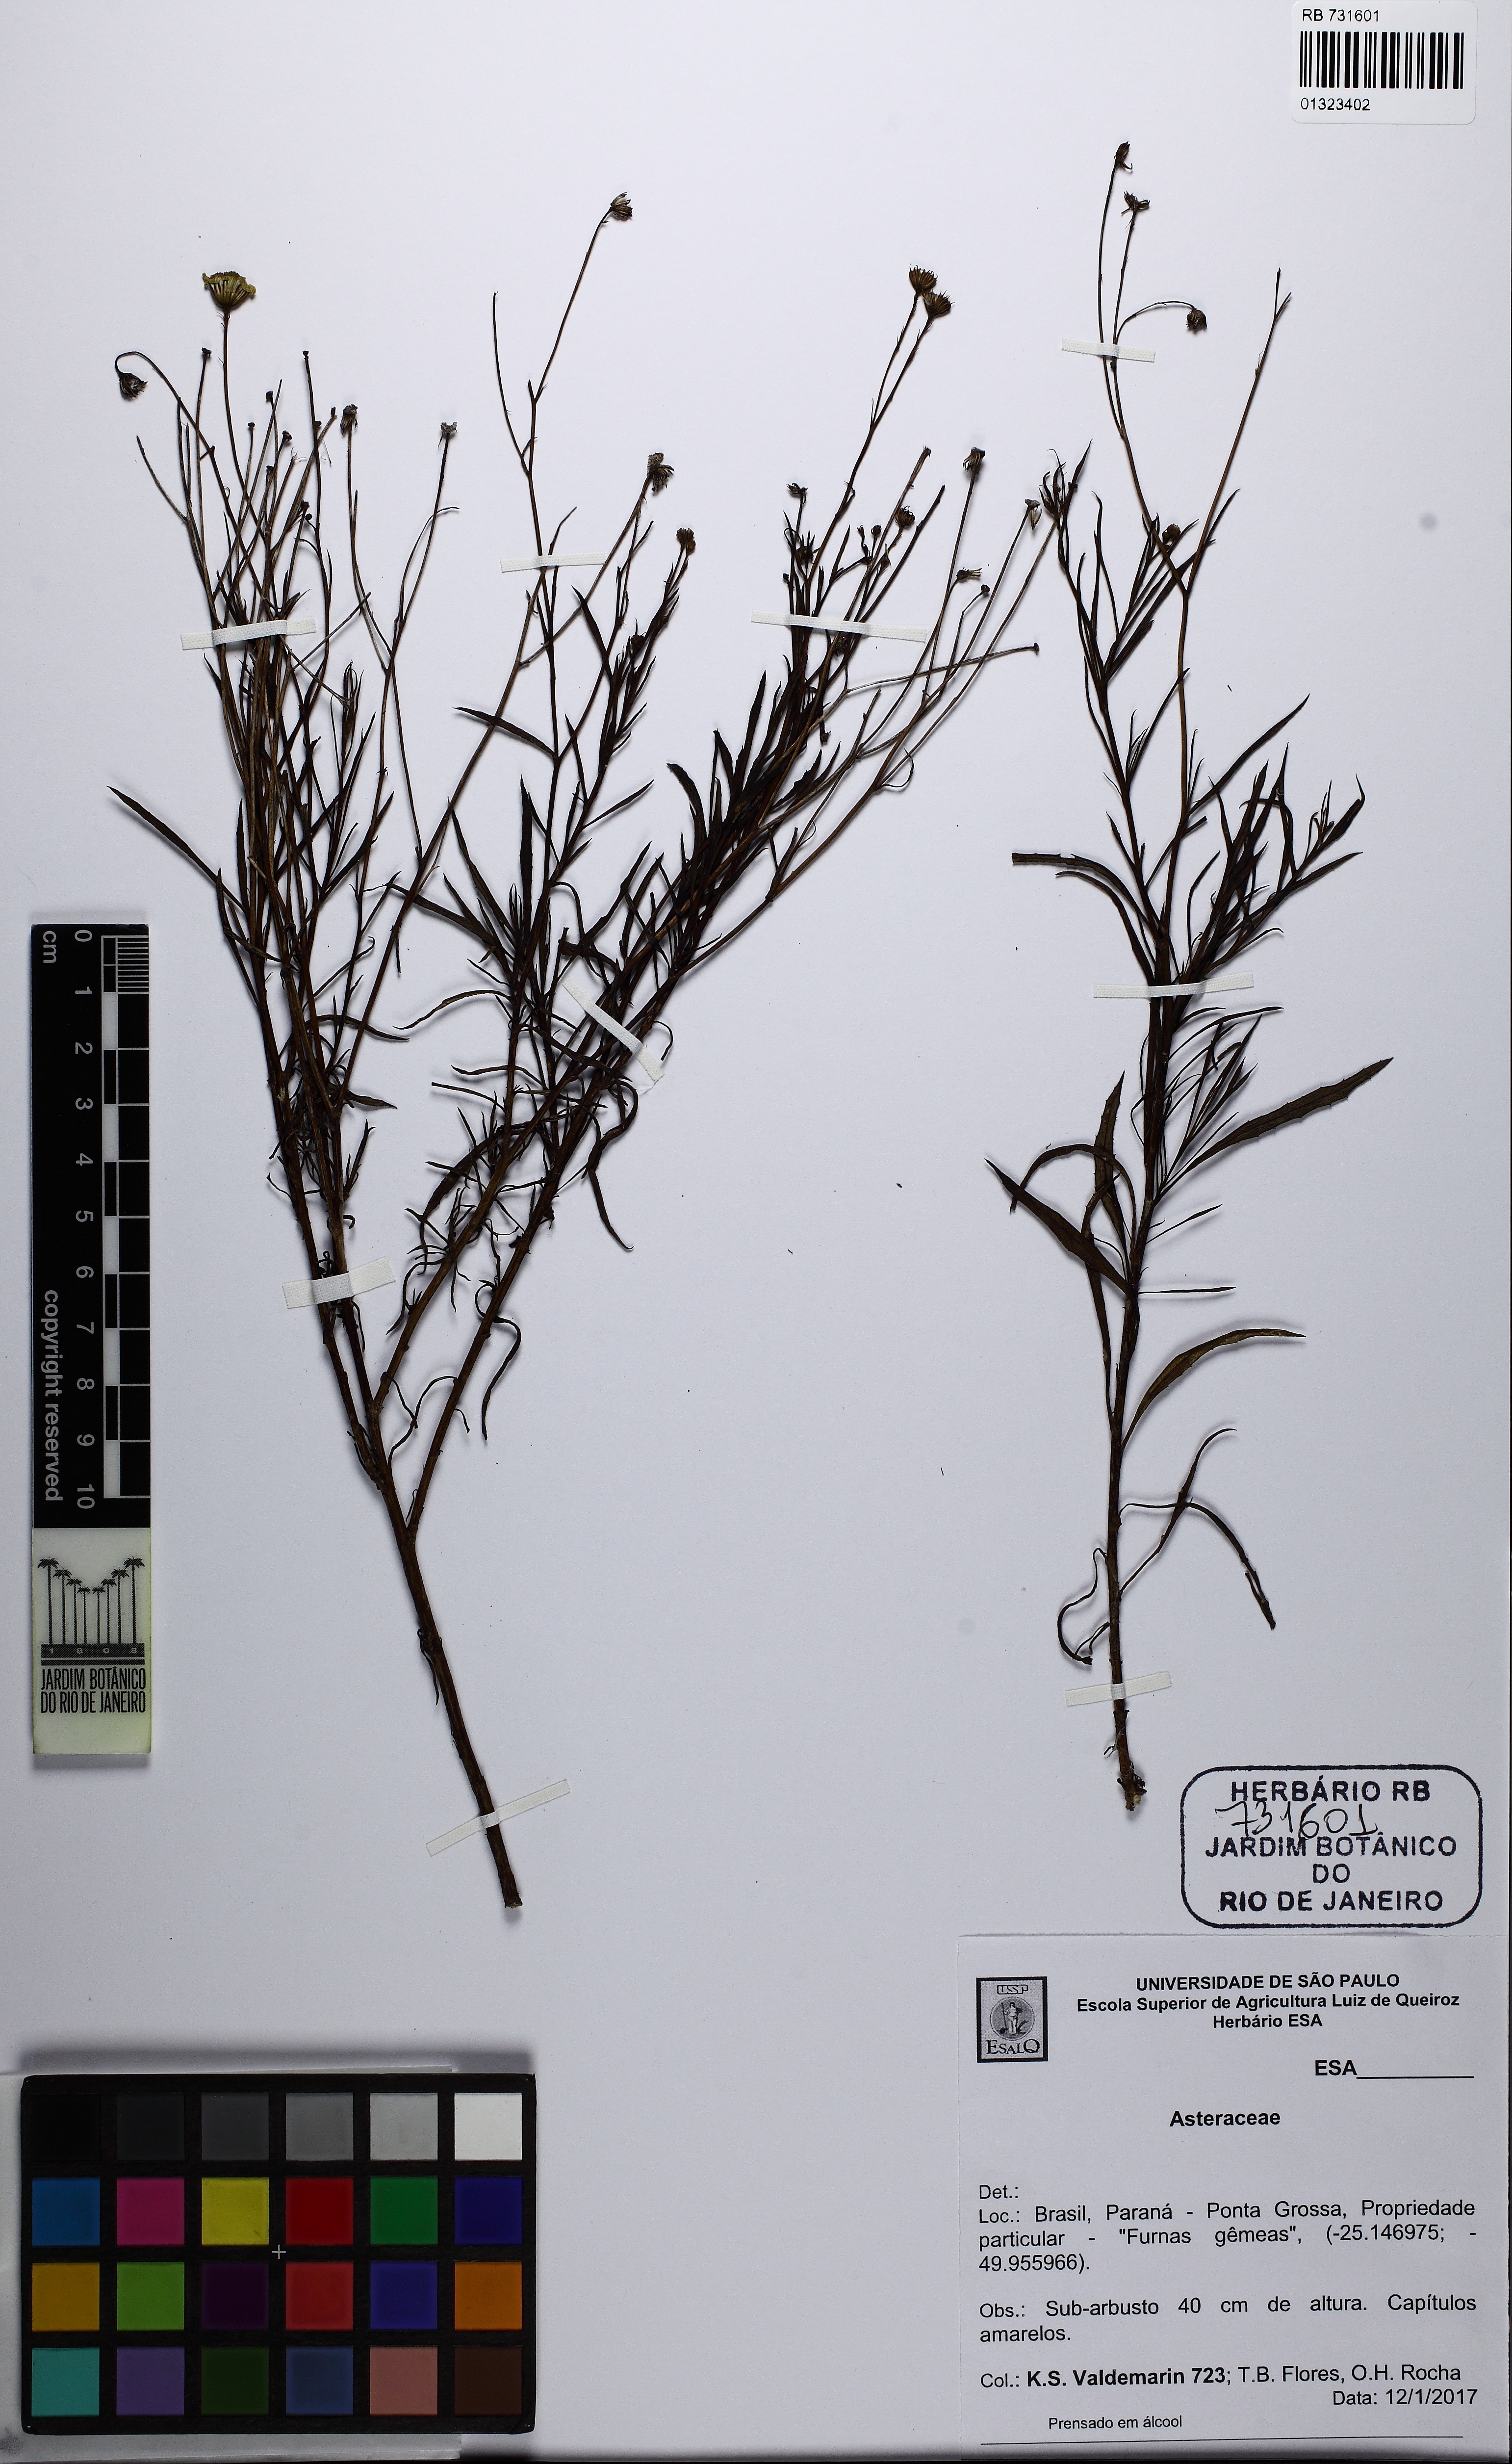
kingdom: Plantae
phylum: Tracheophyta
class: Magnoliopsida
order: Asterales
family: Asteraceae
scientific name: Asteraceae
